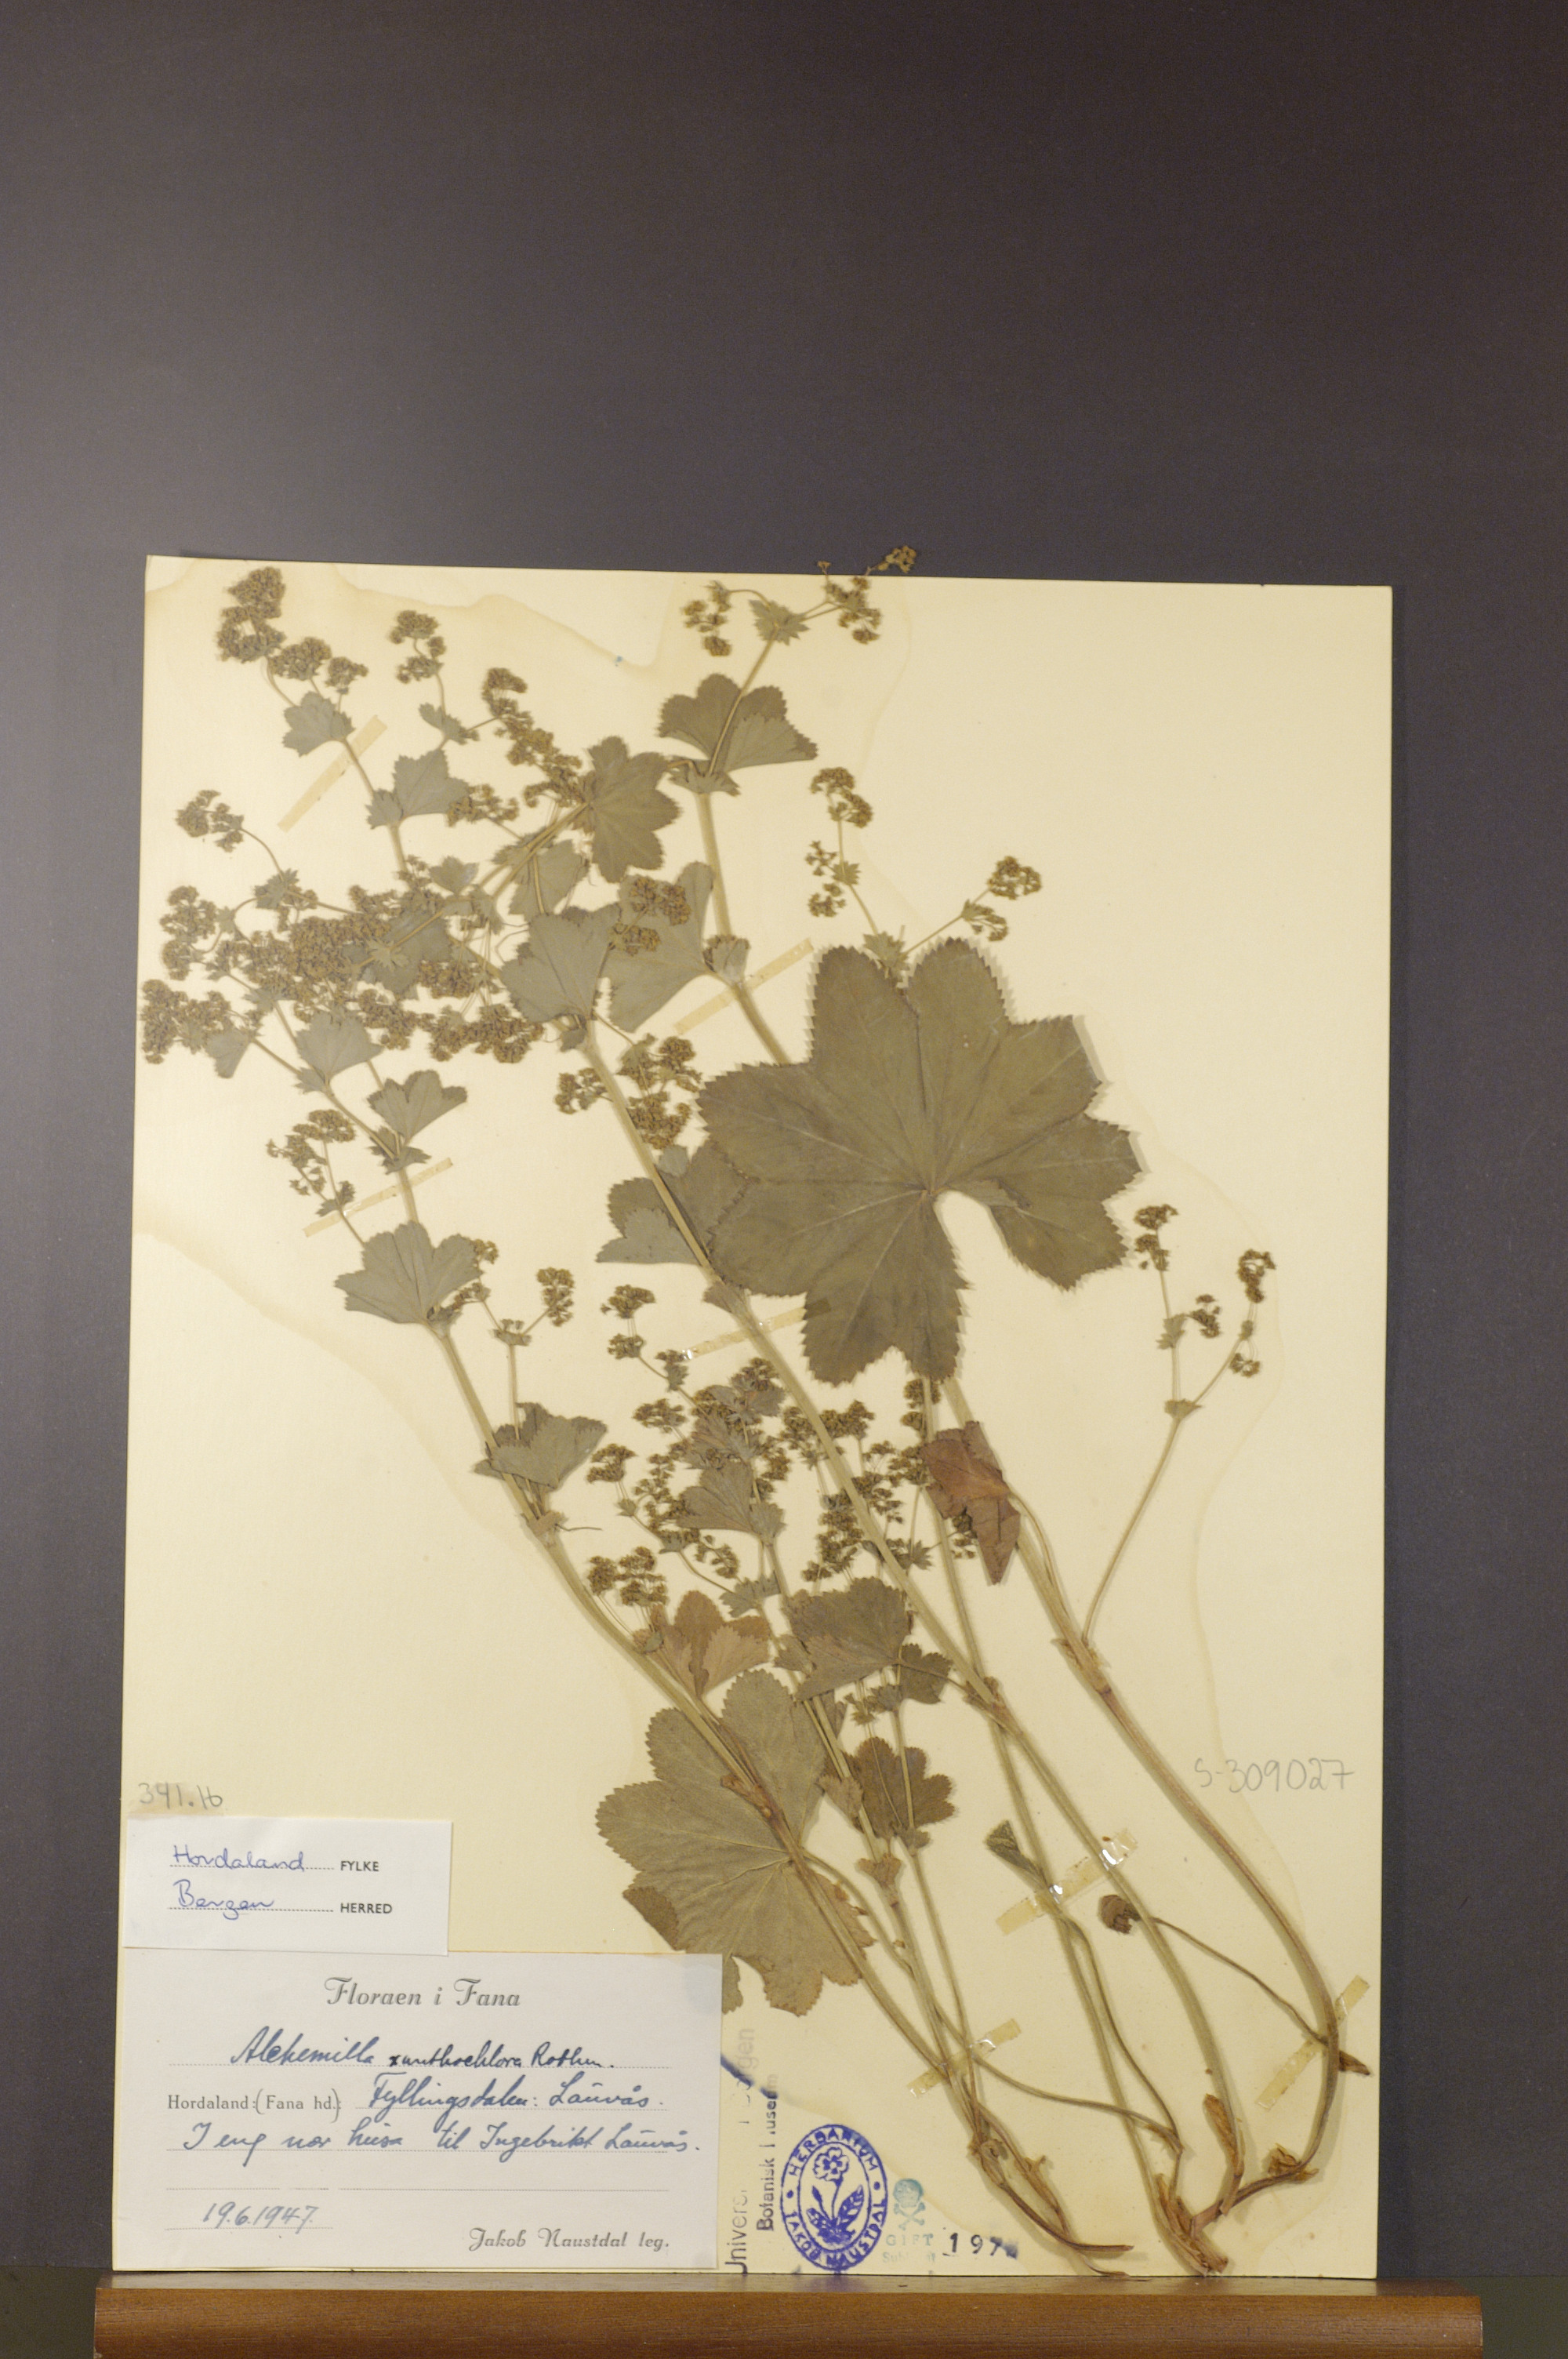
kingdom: Plantae
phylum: Tracheophyta
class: Magnoliopsida
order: Rosales
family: Rosaceae
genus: Alchemilla
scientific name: Alchemilla xanthochlora
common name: Intermediate lady's-mantle
